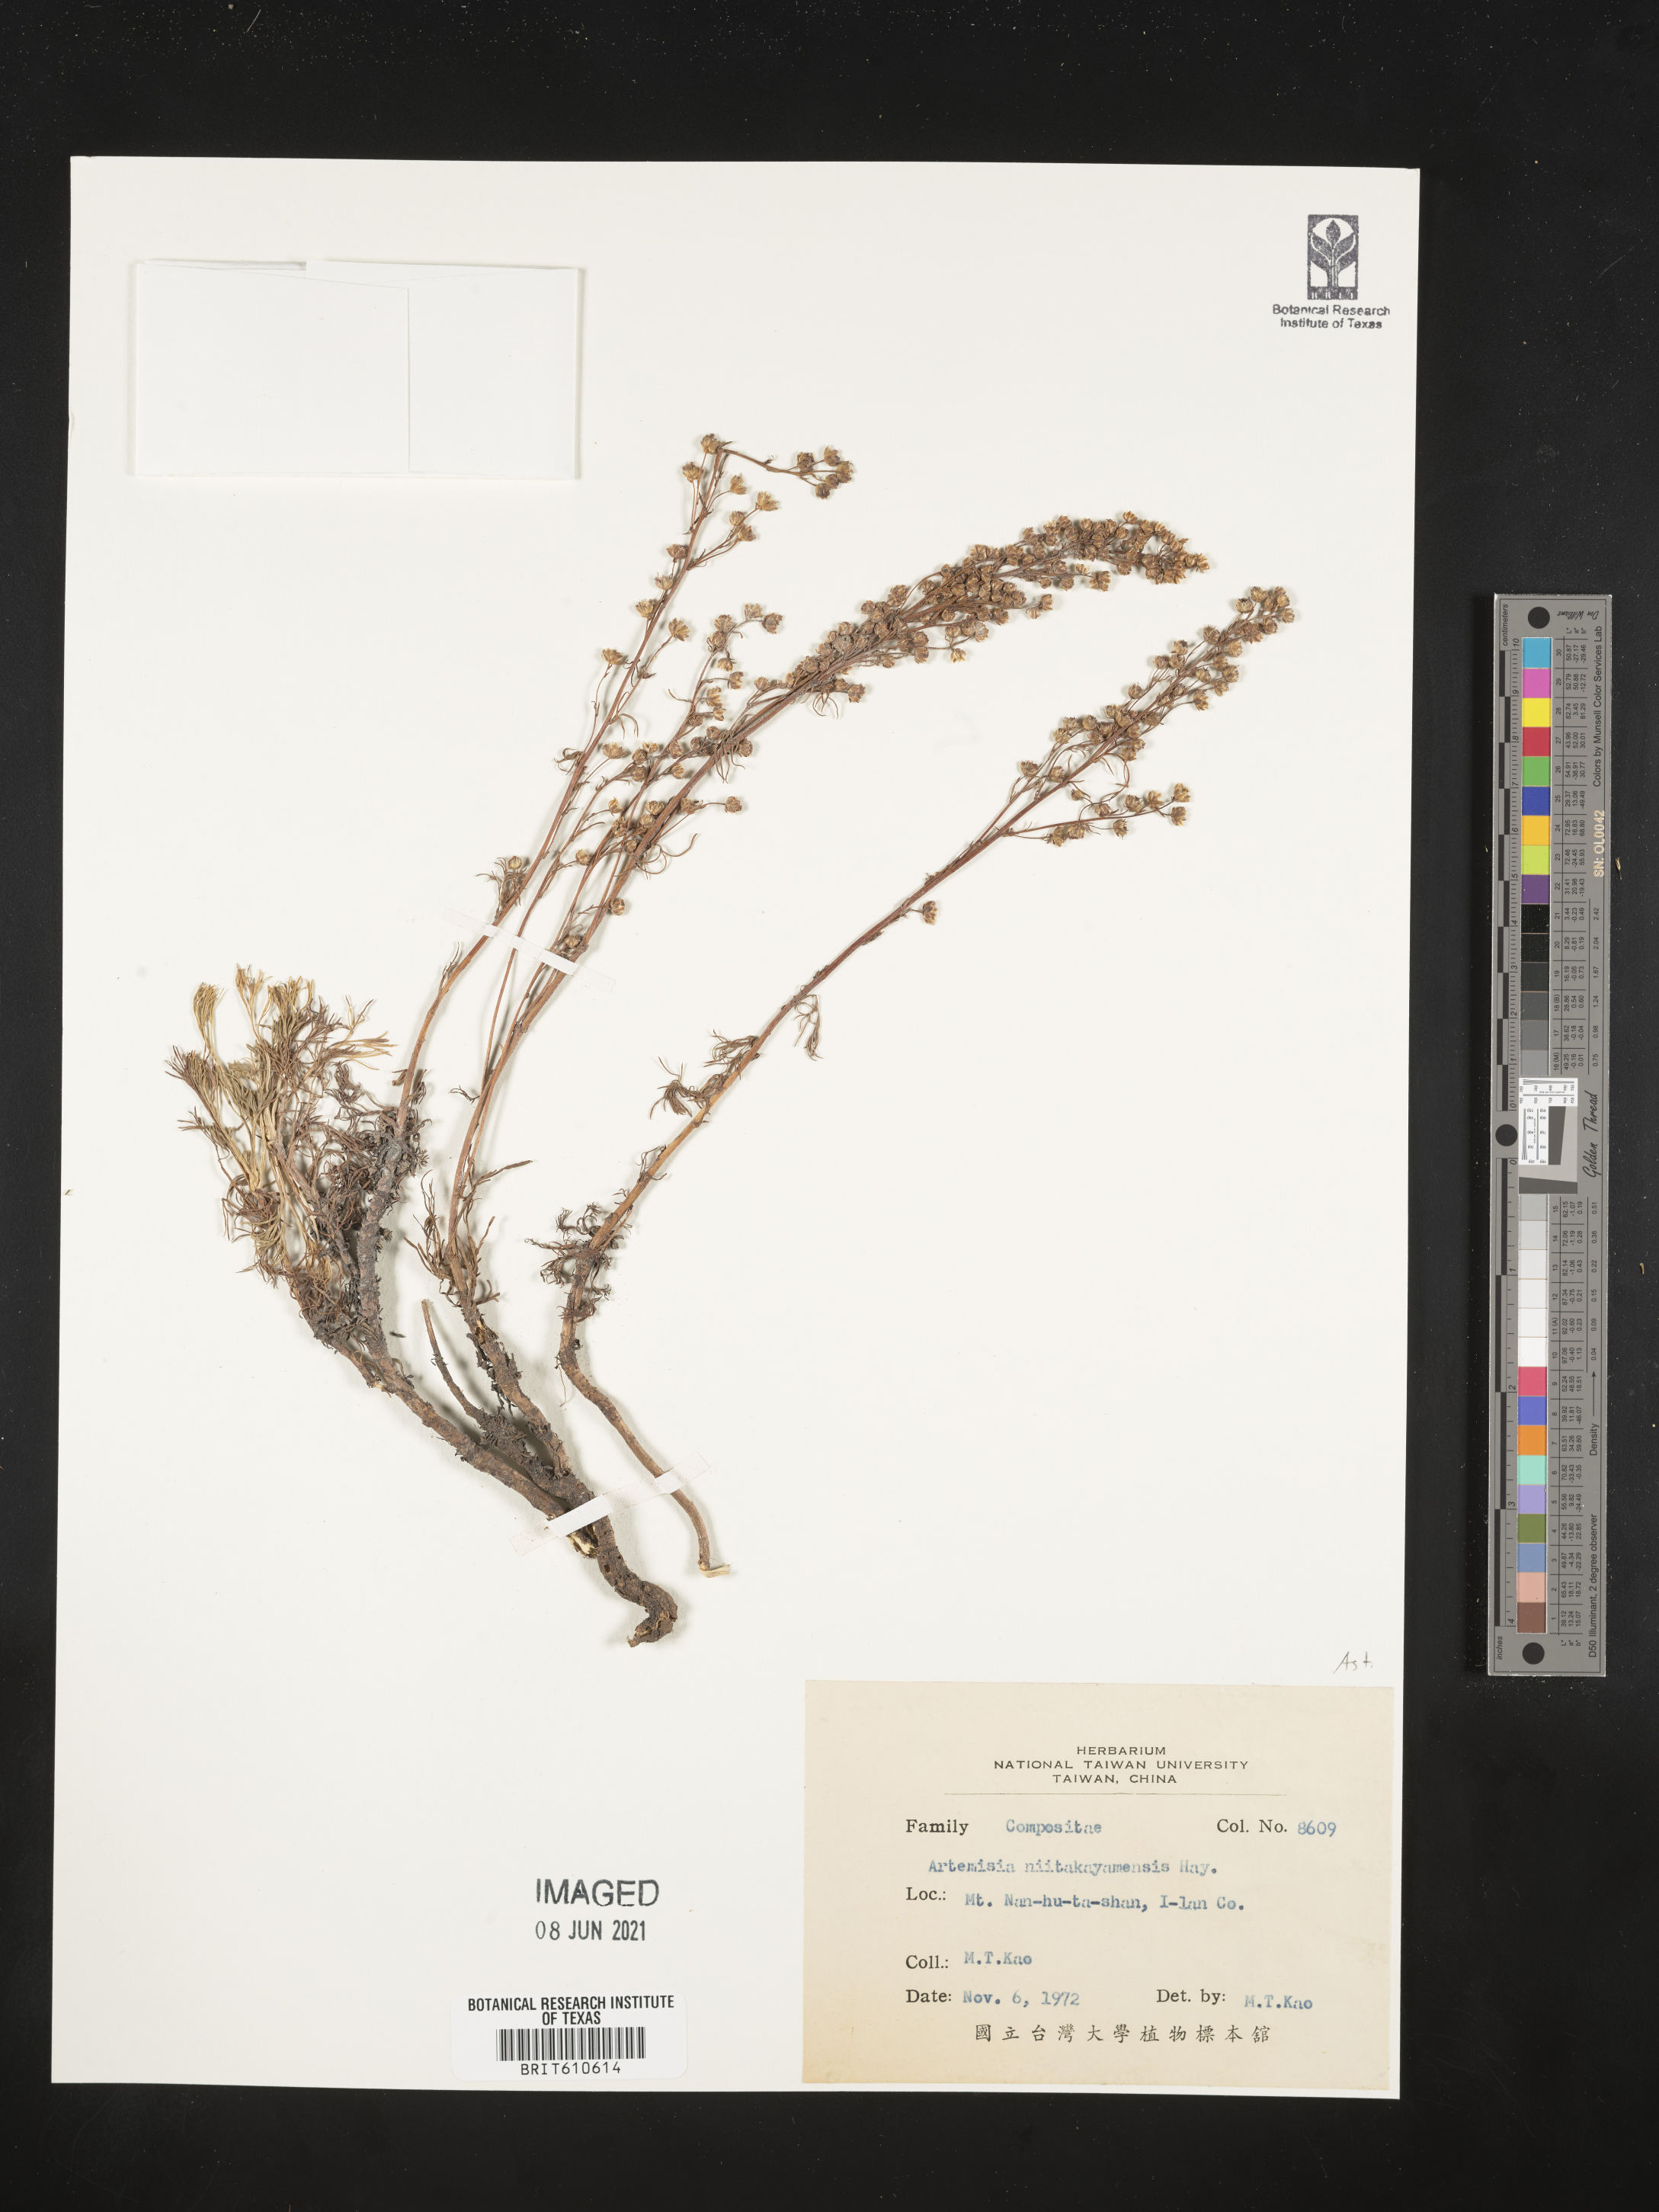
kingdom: Plantae
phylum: Tracheophyta
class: Magnoliopsida
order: Asterales
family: Asteraceae
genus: Artemisia
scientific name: Artemisia niitakayamensis
